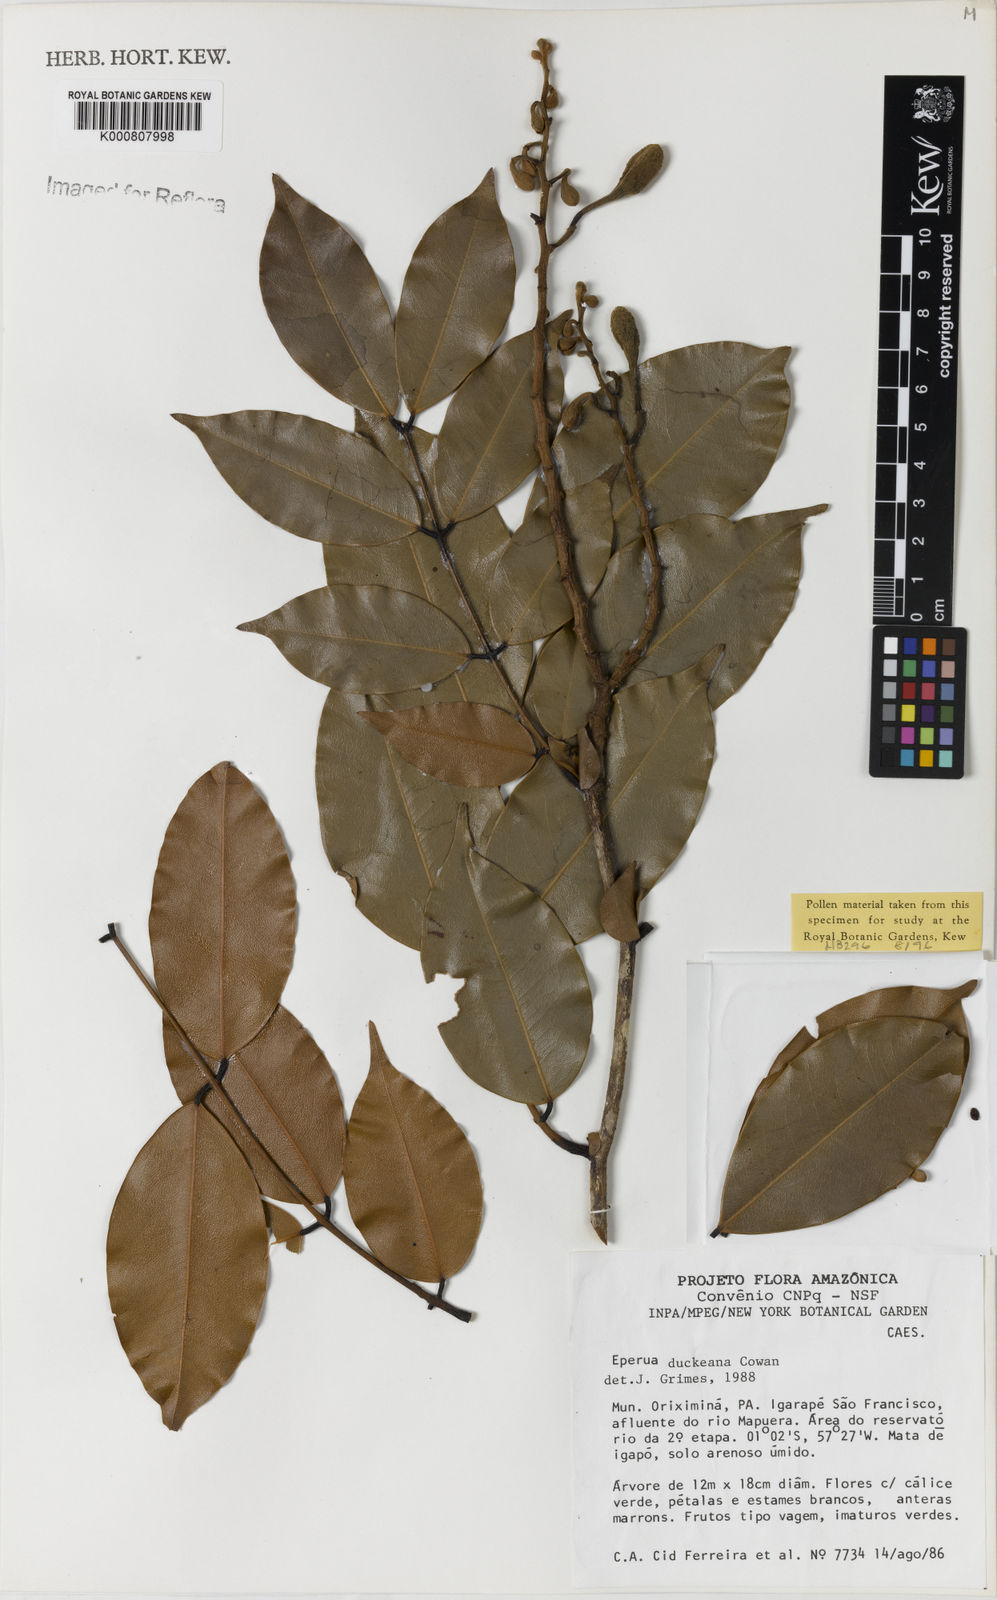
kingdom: Plantae
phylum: Tracheophyta
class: Magnoliopsida
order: Fabales
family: Fabaceae
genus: Eperua
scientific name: Eperua duckeana
